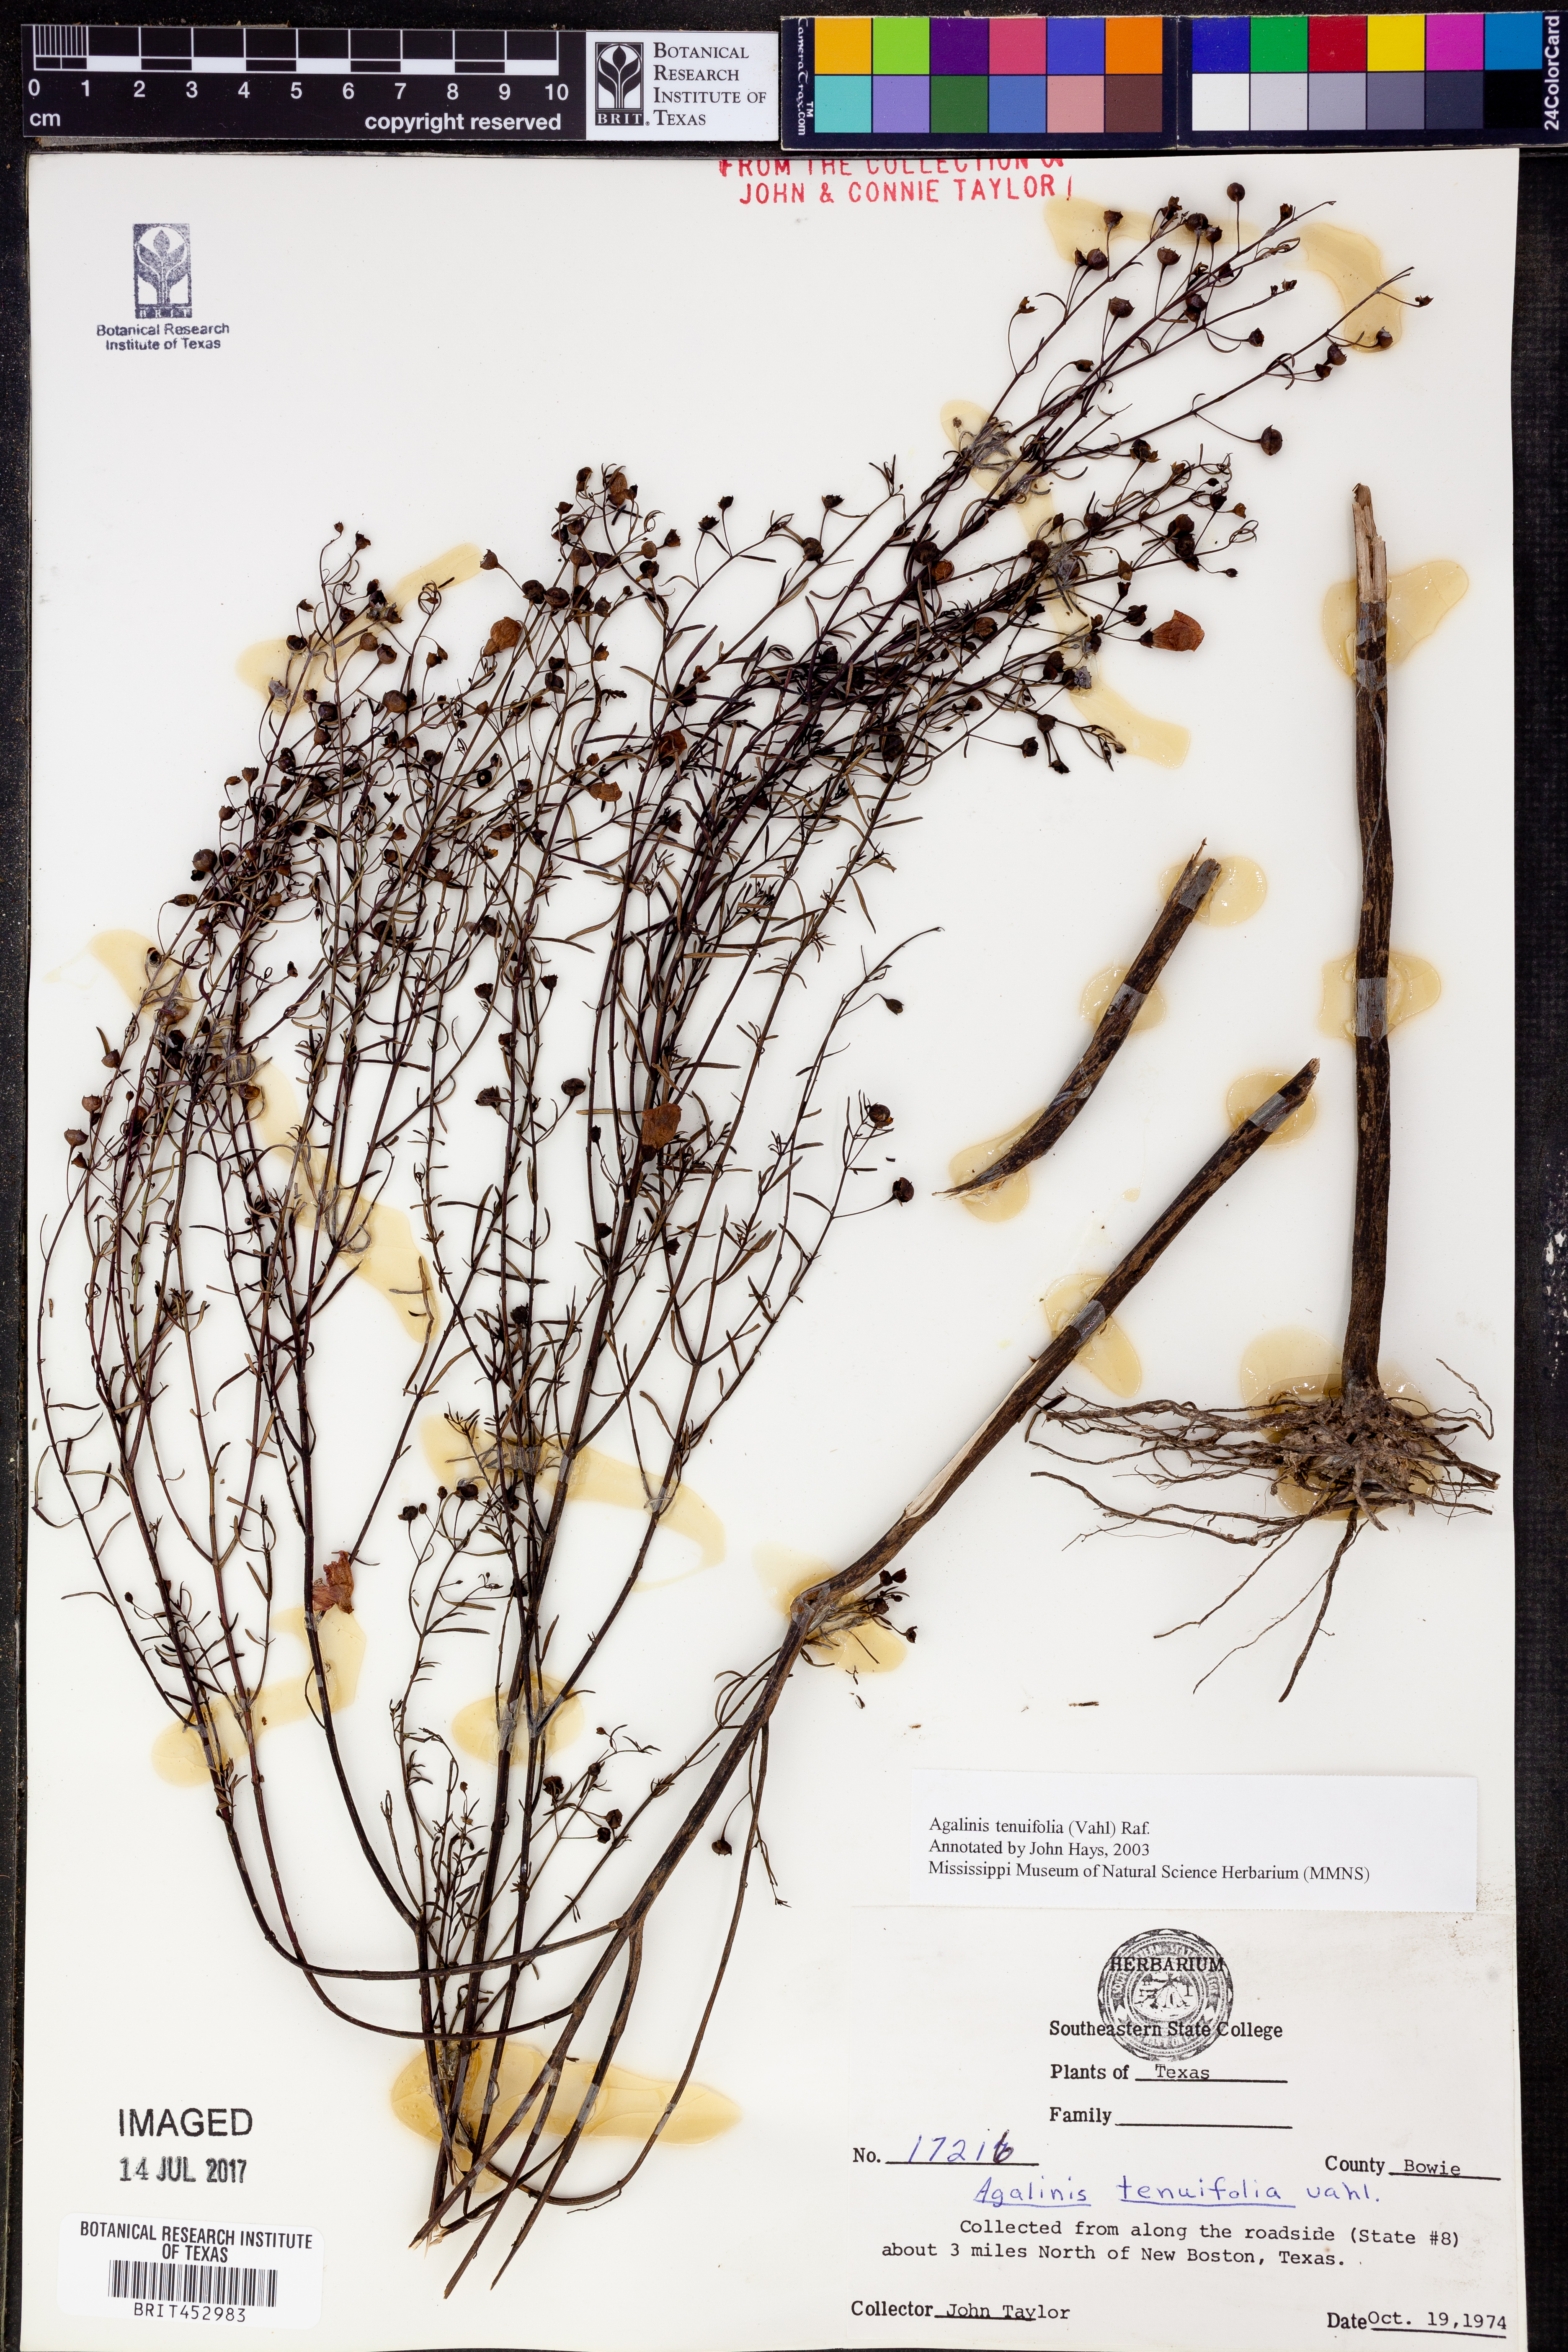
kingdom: Plantae
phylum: Tracheophyta
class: Magnoliopsida
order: Lamiales
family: Orobanchaceae
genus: Agalinis
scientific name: Agalinis tenuifolia
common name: Slender agalinis
